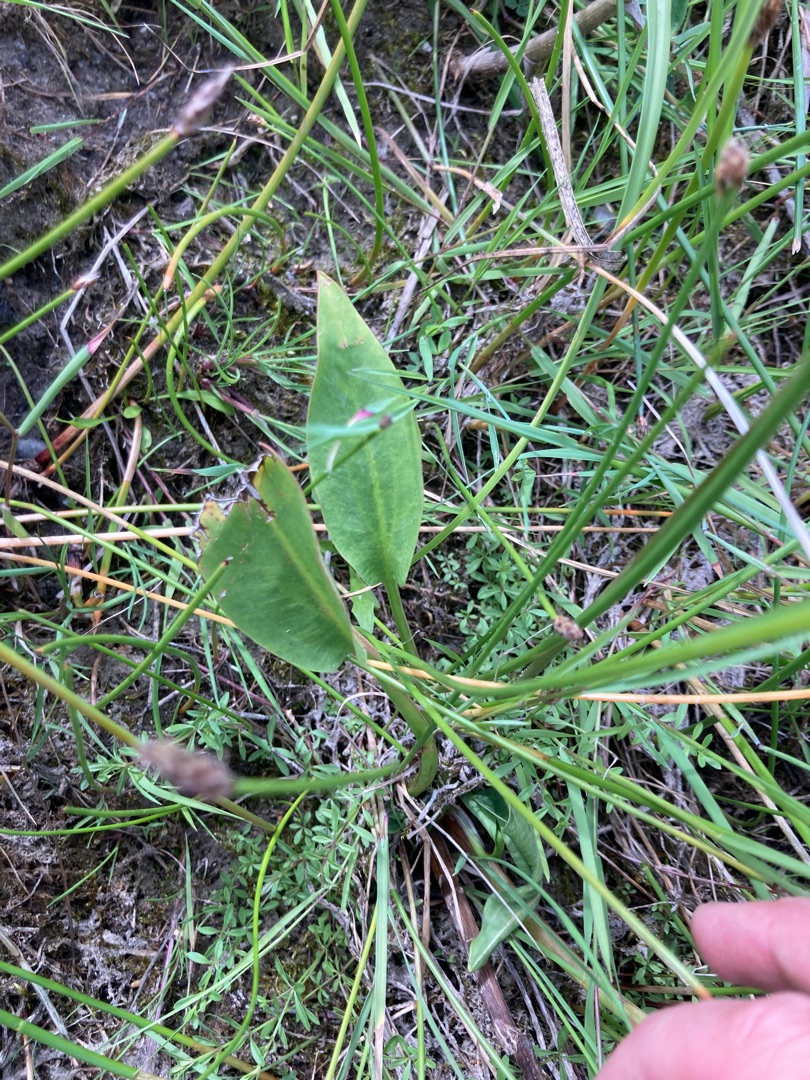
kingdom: Plantae
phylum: Tracheophyta
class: Liliopsida
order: Alismatales
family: Alismataceae
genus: Alisma
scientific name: Alisma plantago-aquatica
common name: Vejbred-skeblad
